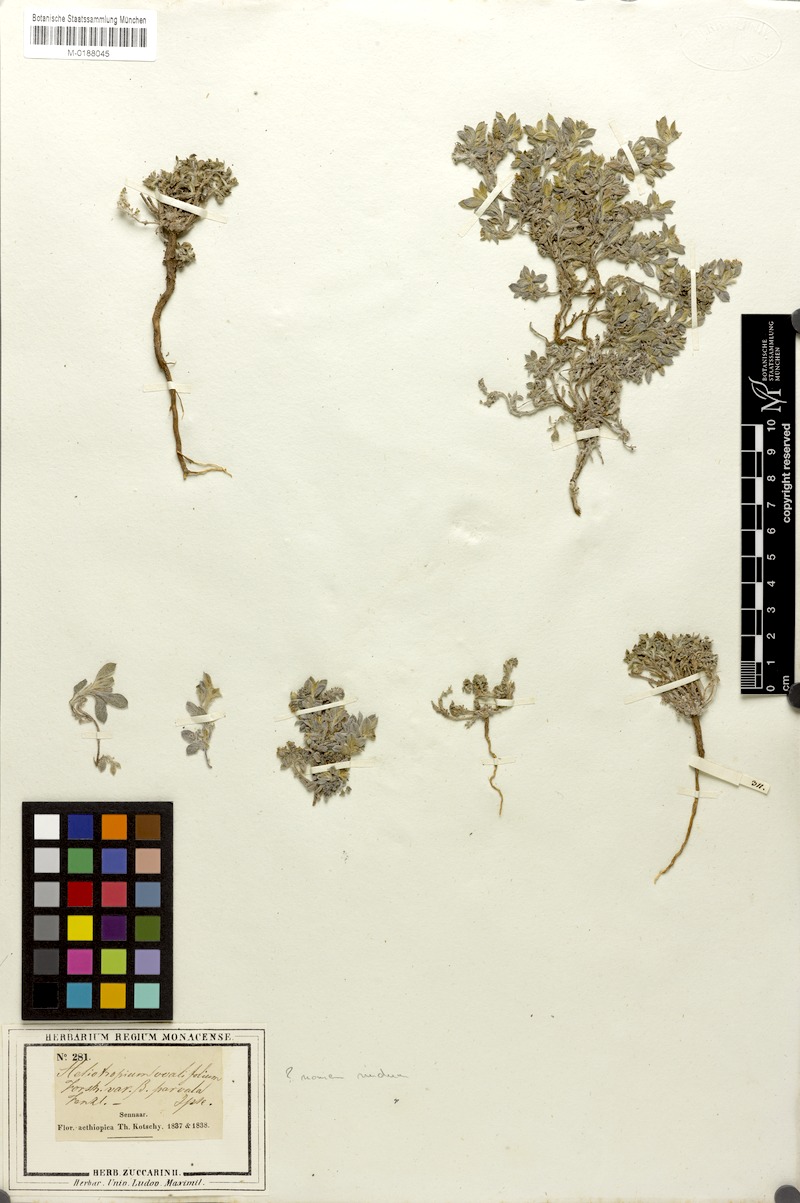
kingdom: Plantae
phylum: Tracheophyta
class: Magnoliopsida
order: Boraginales
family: Heliotropiaceae
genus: Euploca
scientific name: Euploca ovalifolia
